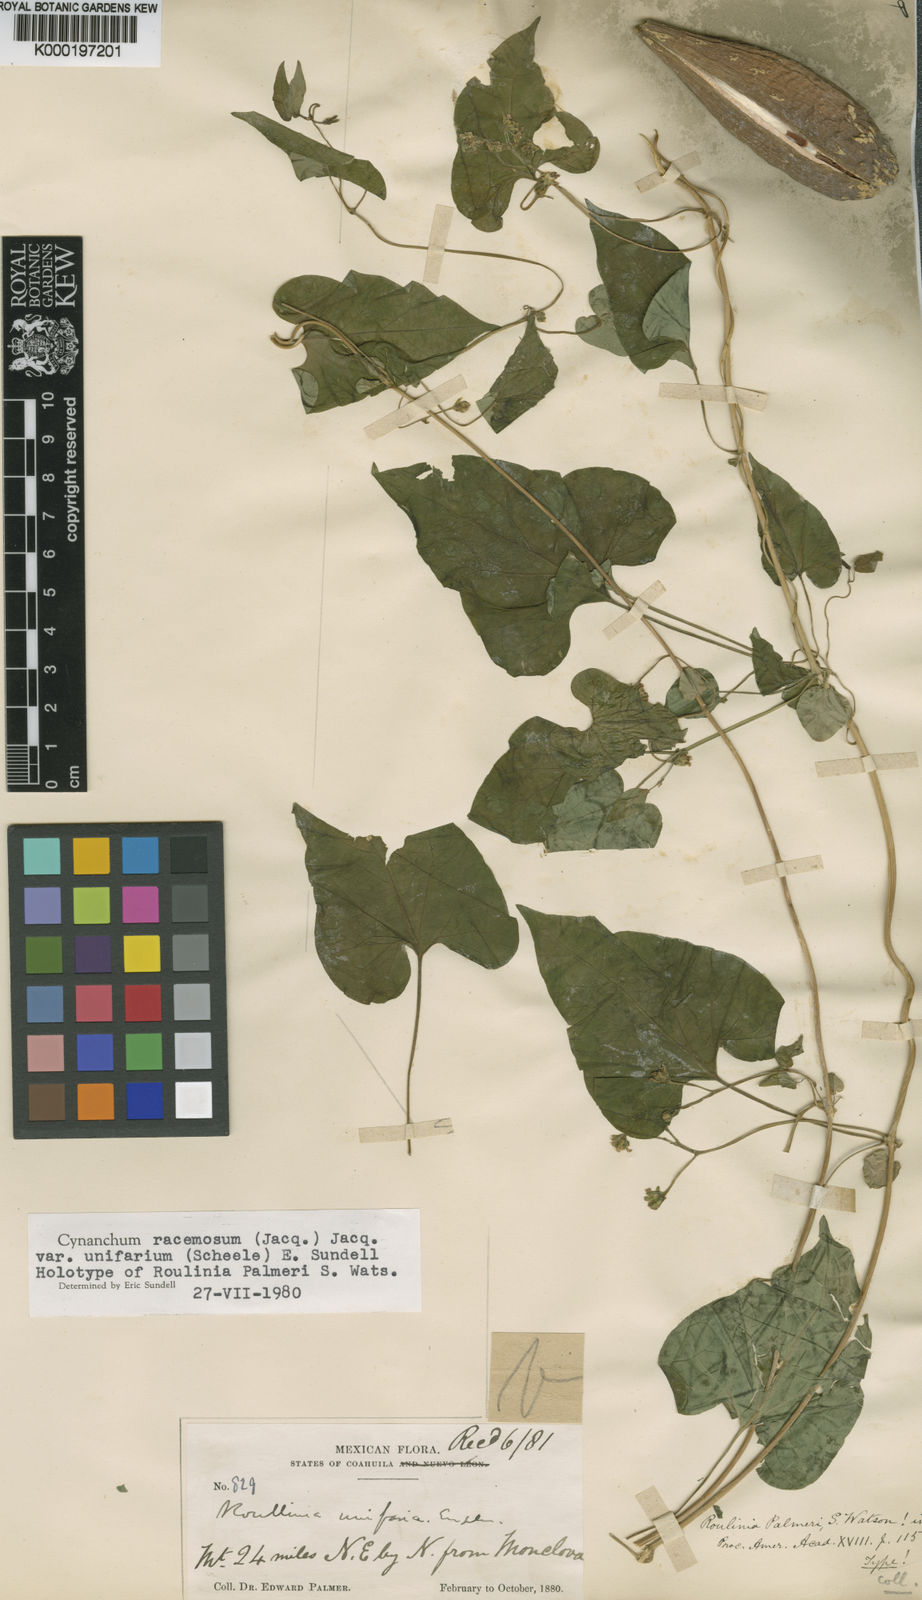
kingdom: Plantae
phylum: Tracheophyta
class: Magnoliopsida
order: Gentianales
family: Apocynaceae
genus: Cynanchum
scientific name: Cynanchum racemosum
